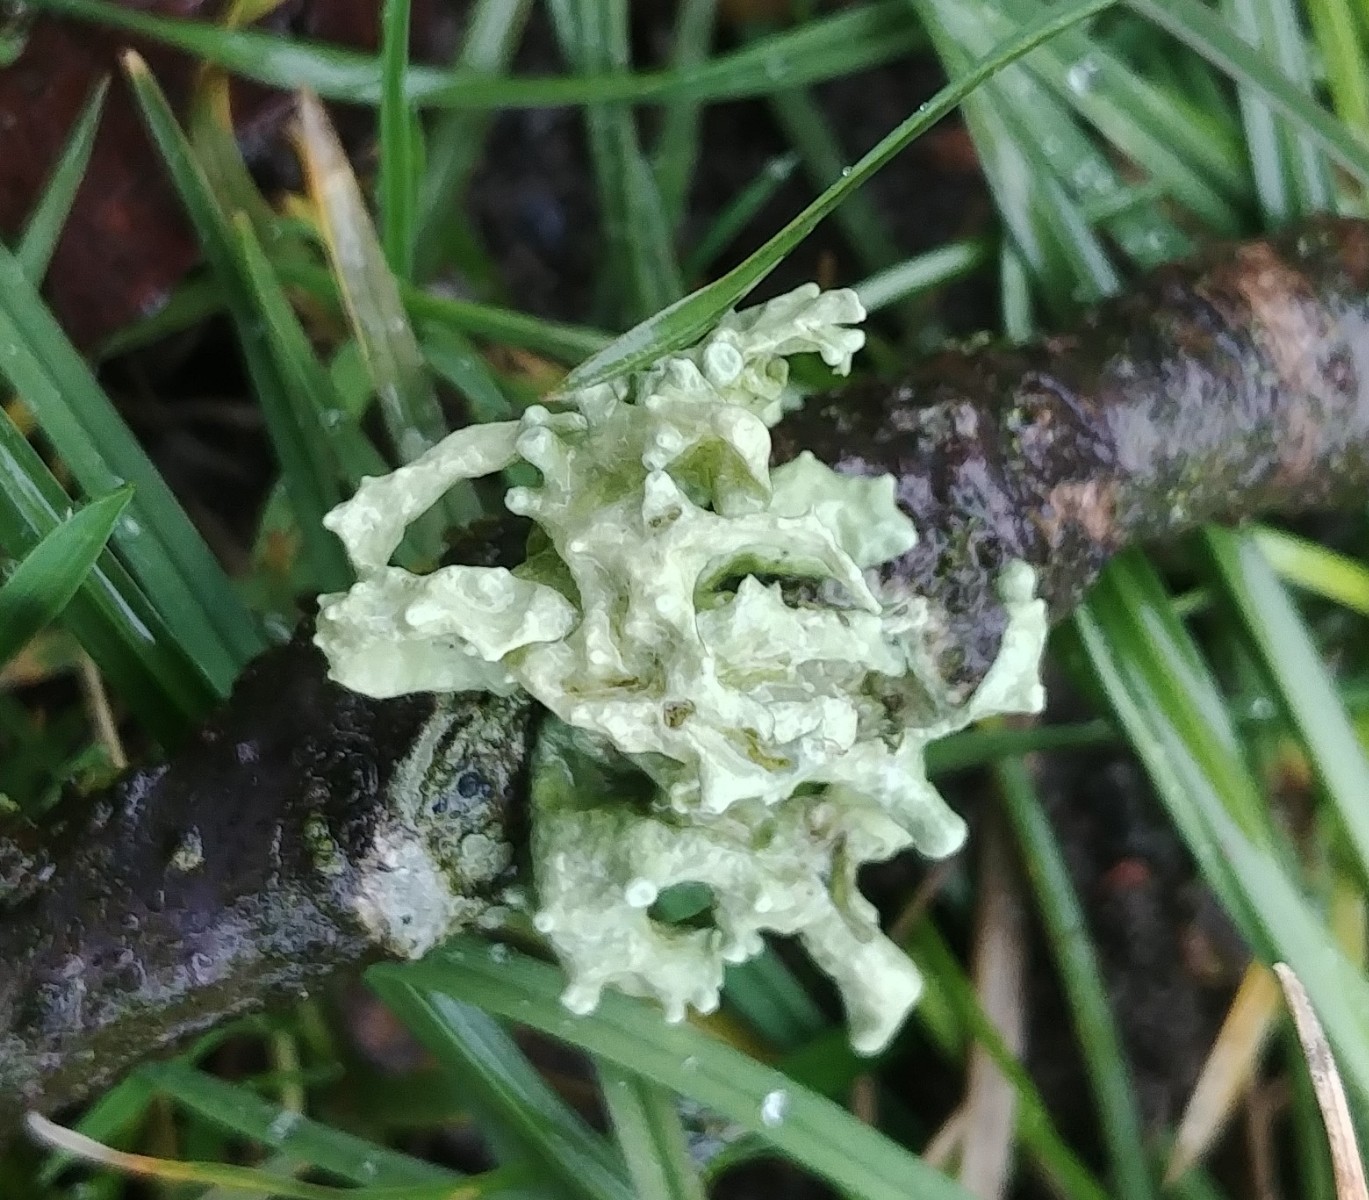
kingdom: Fungi
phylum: Ascomycota
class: Lecanoromycetes
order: Lecanorales
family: Ramalinaceae
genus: Ramalina
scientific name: Ramalina fastigiata
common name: tue-grenlav
